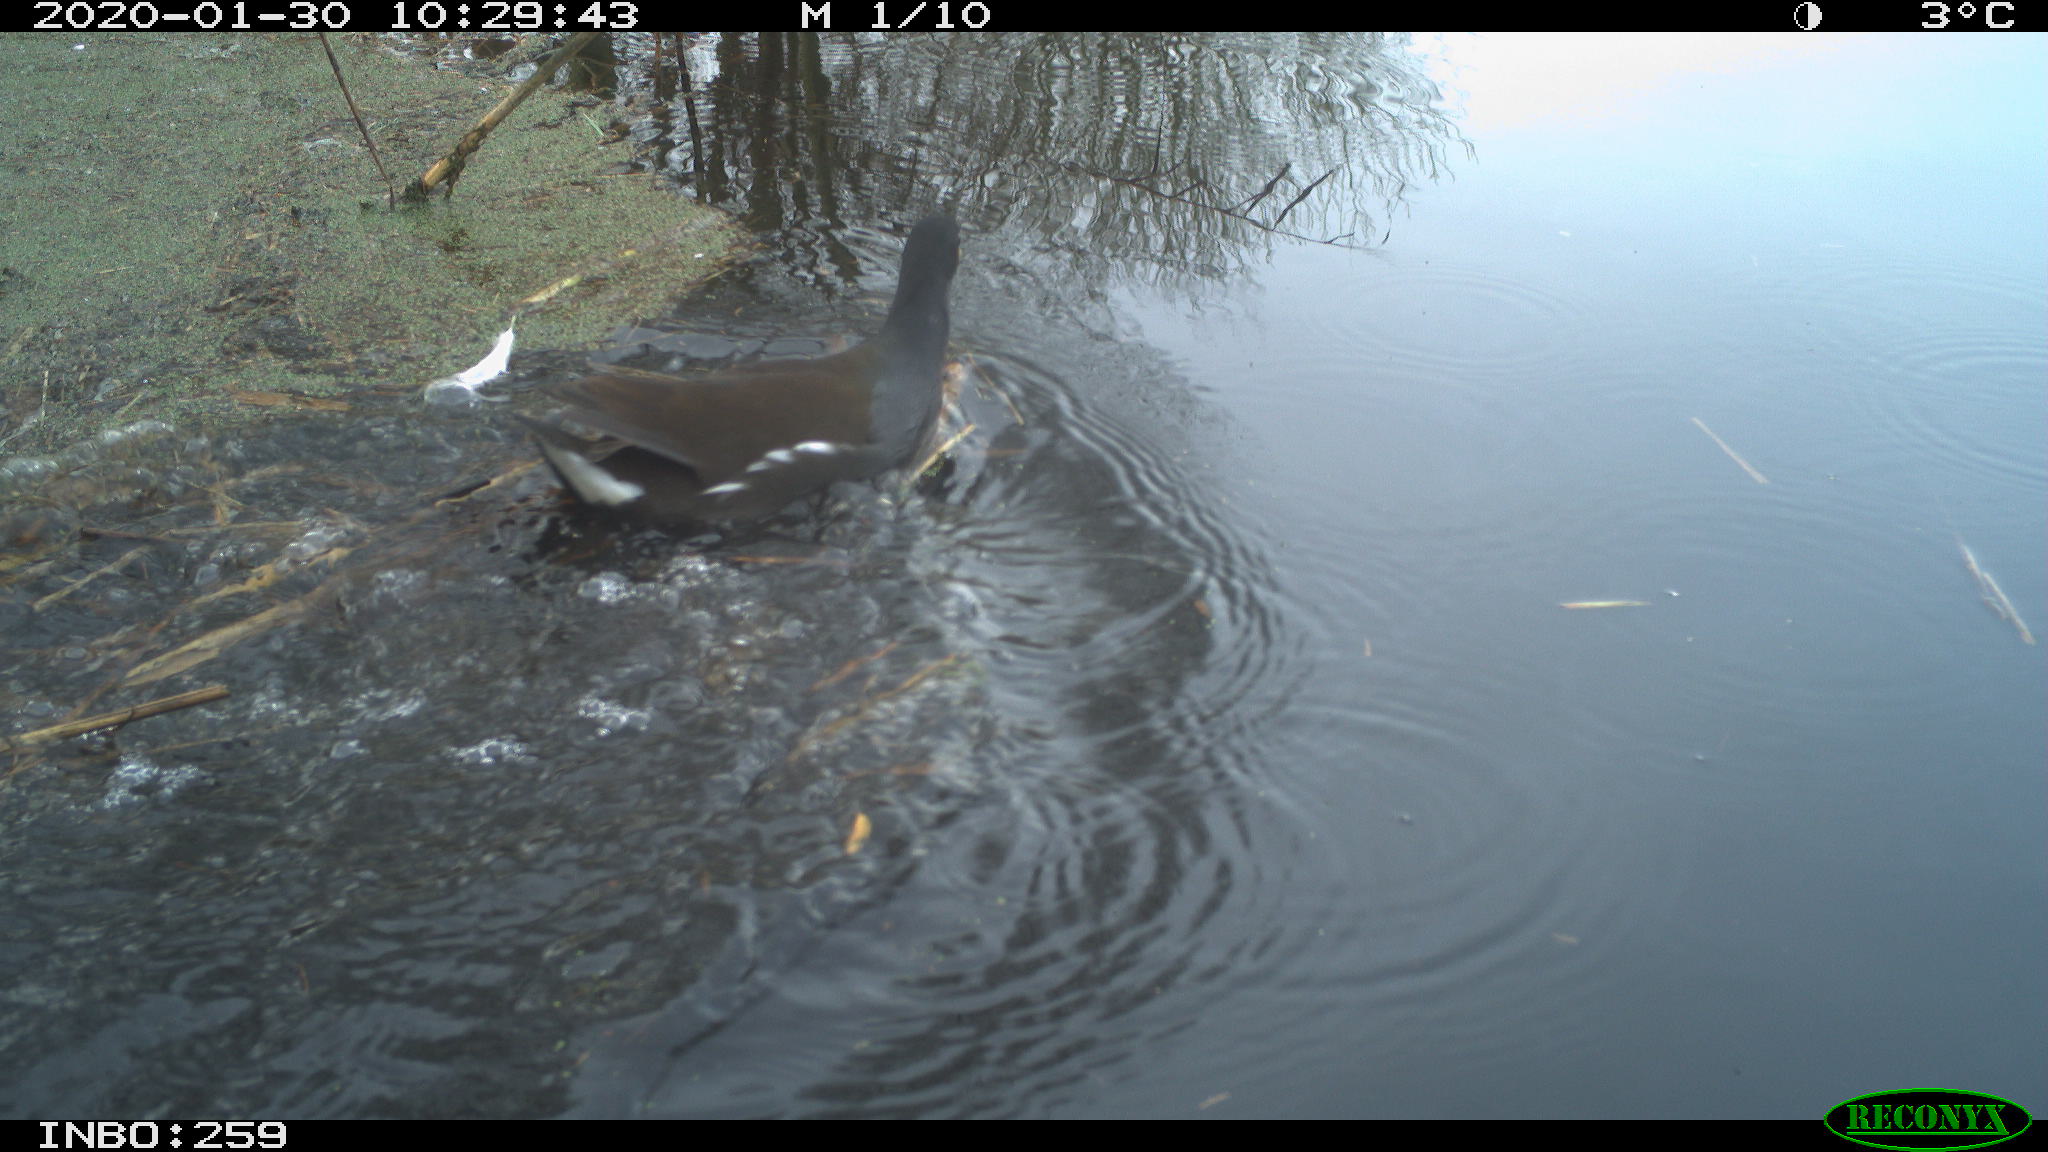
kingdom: Animalia
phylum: Chordata
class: Aves
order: Gruiformes
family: Rallidae
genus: Gallinula
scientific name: Gallinula chloropus
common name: Common moorhen
